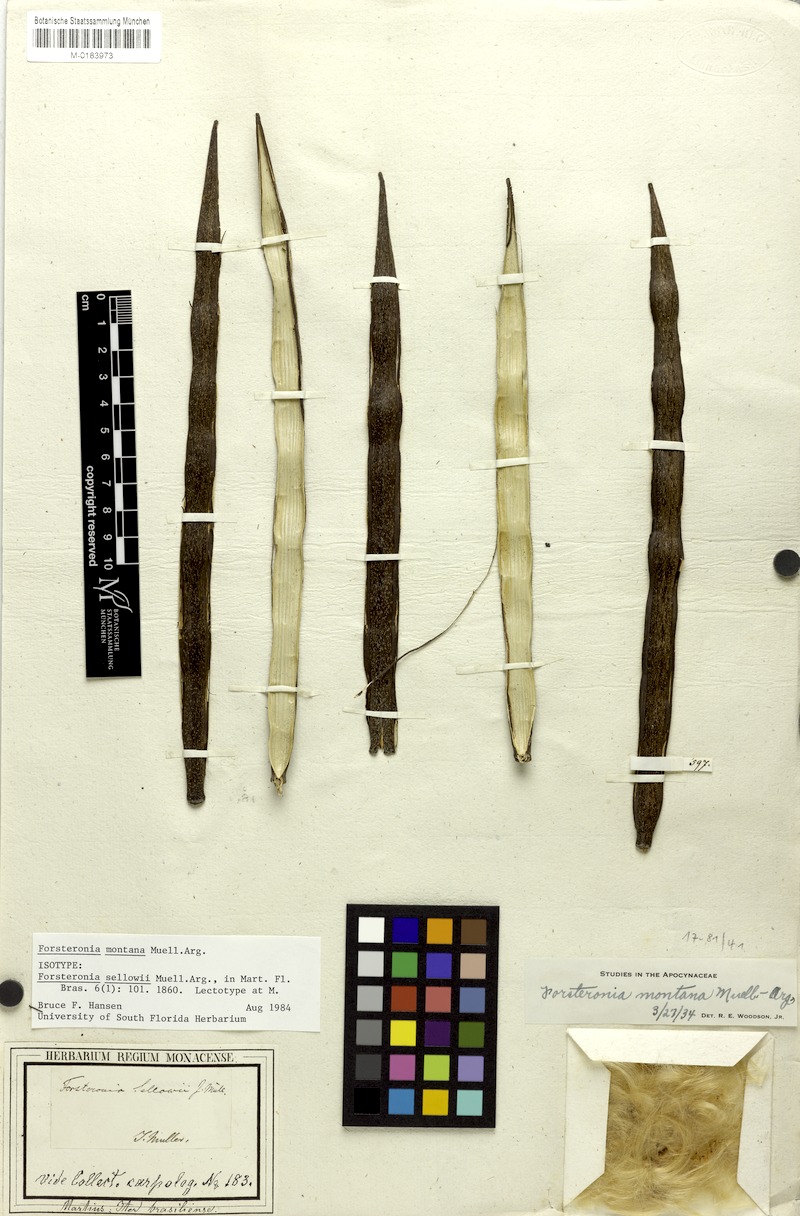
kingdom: Plantae
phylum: Tracheophyta
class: Magnoliopsida
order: Gentianales
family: Apocynaceae
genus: Forsteronia
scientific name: Forsteronia montana
